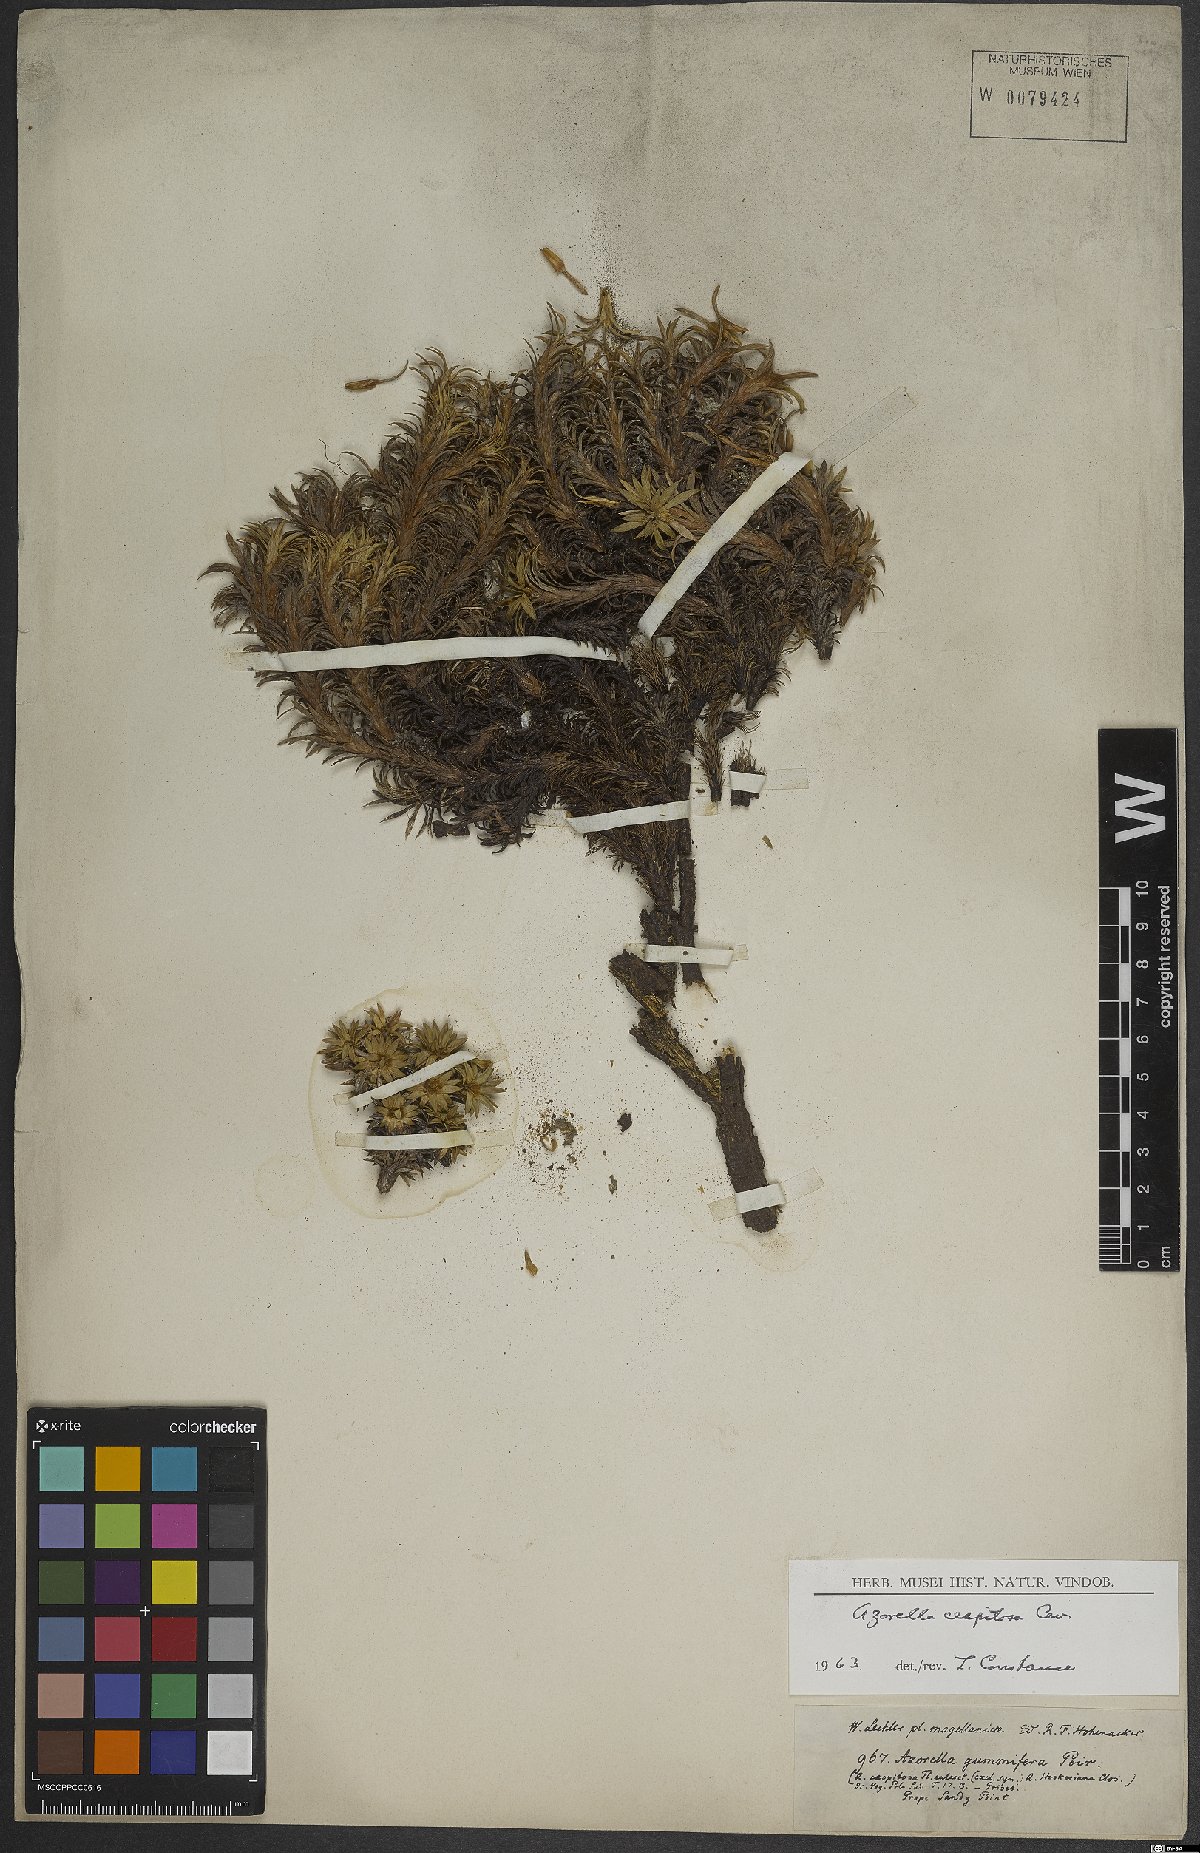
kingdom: Plantae
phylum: Tracheophyta
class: Magnoliopsida
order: Apiales
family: Apiaceae
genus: Azorella
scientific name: Azorella trifurcata
